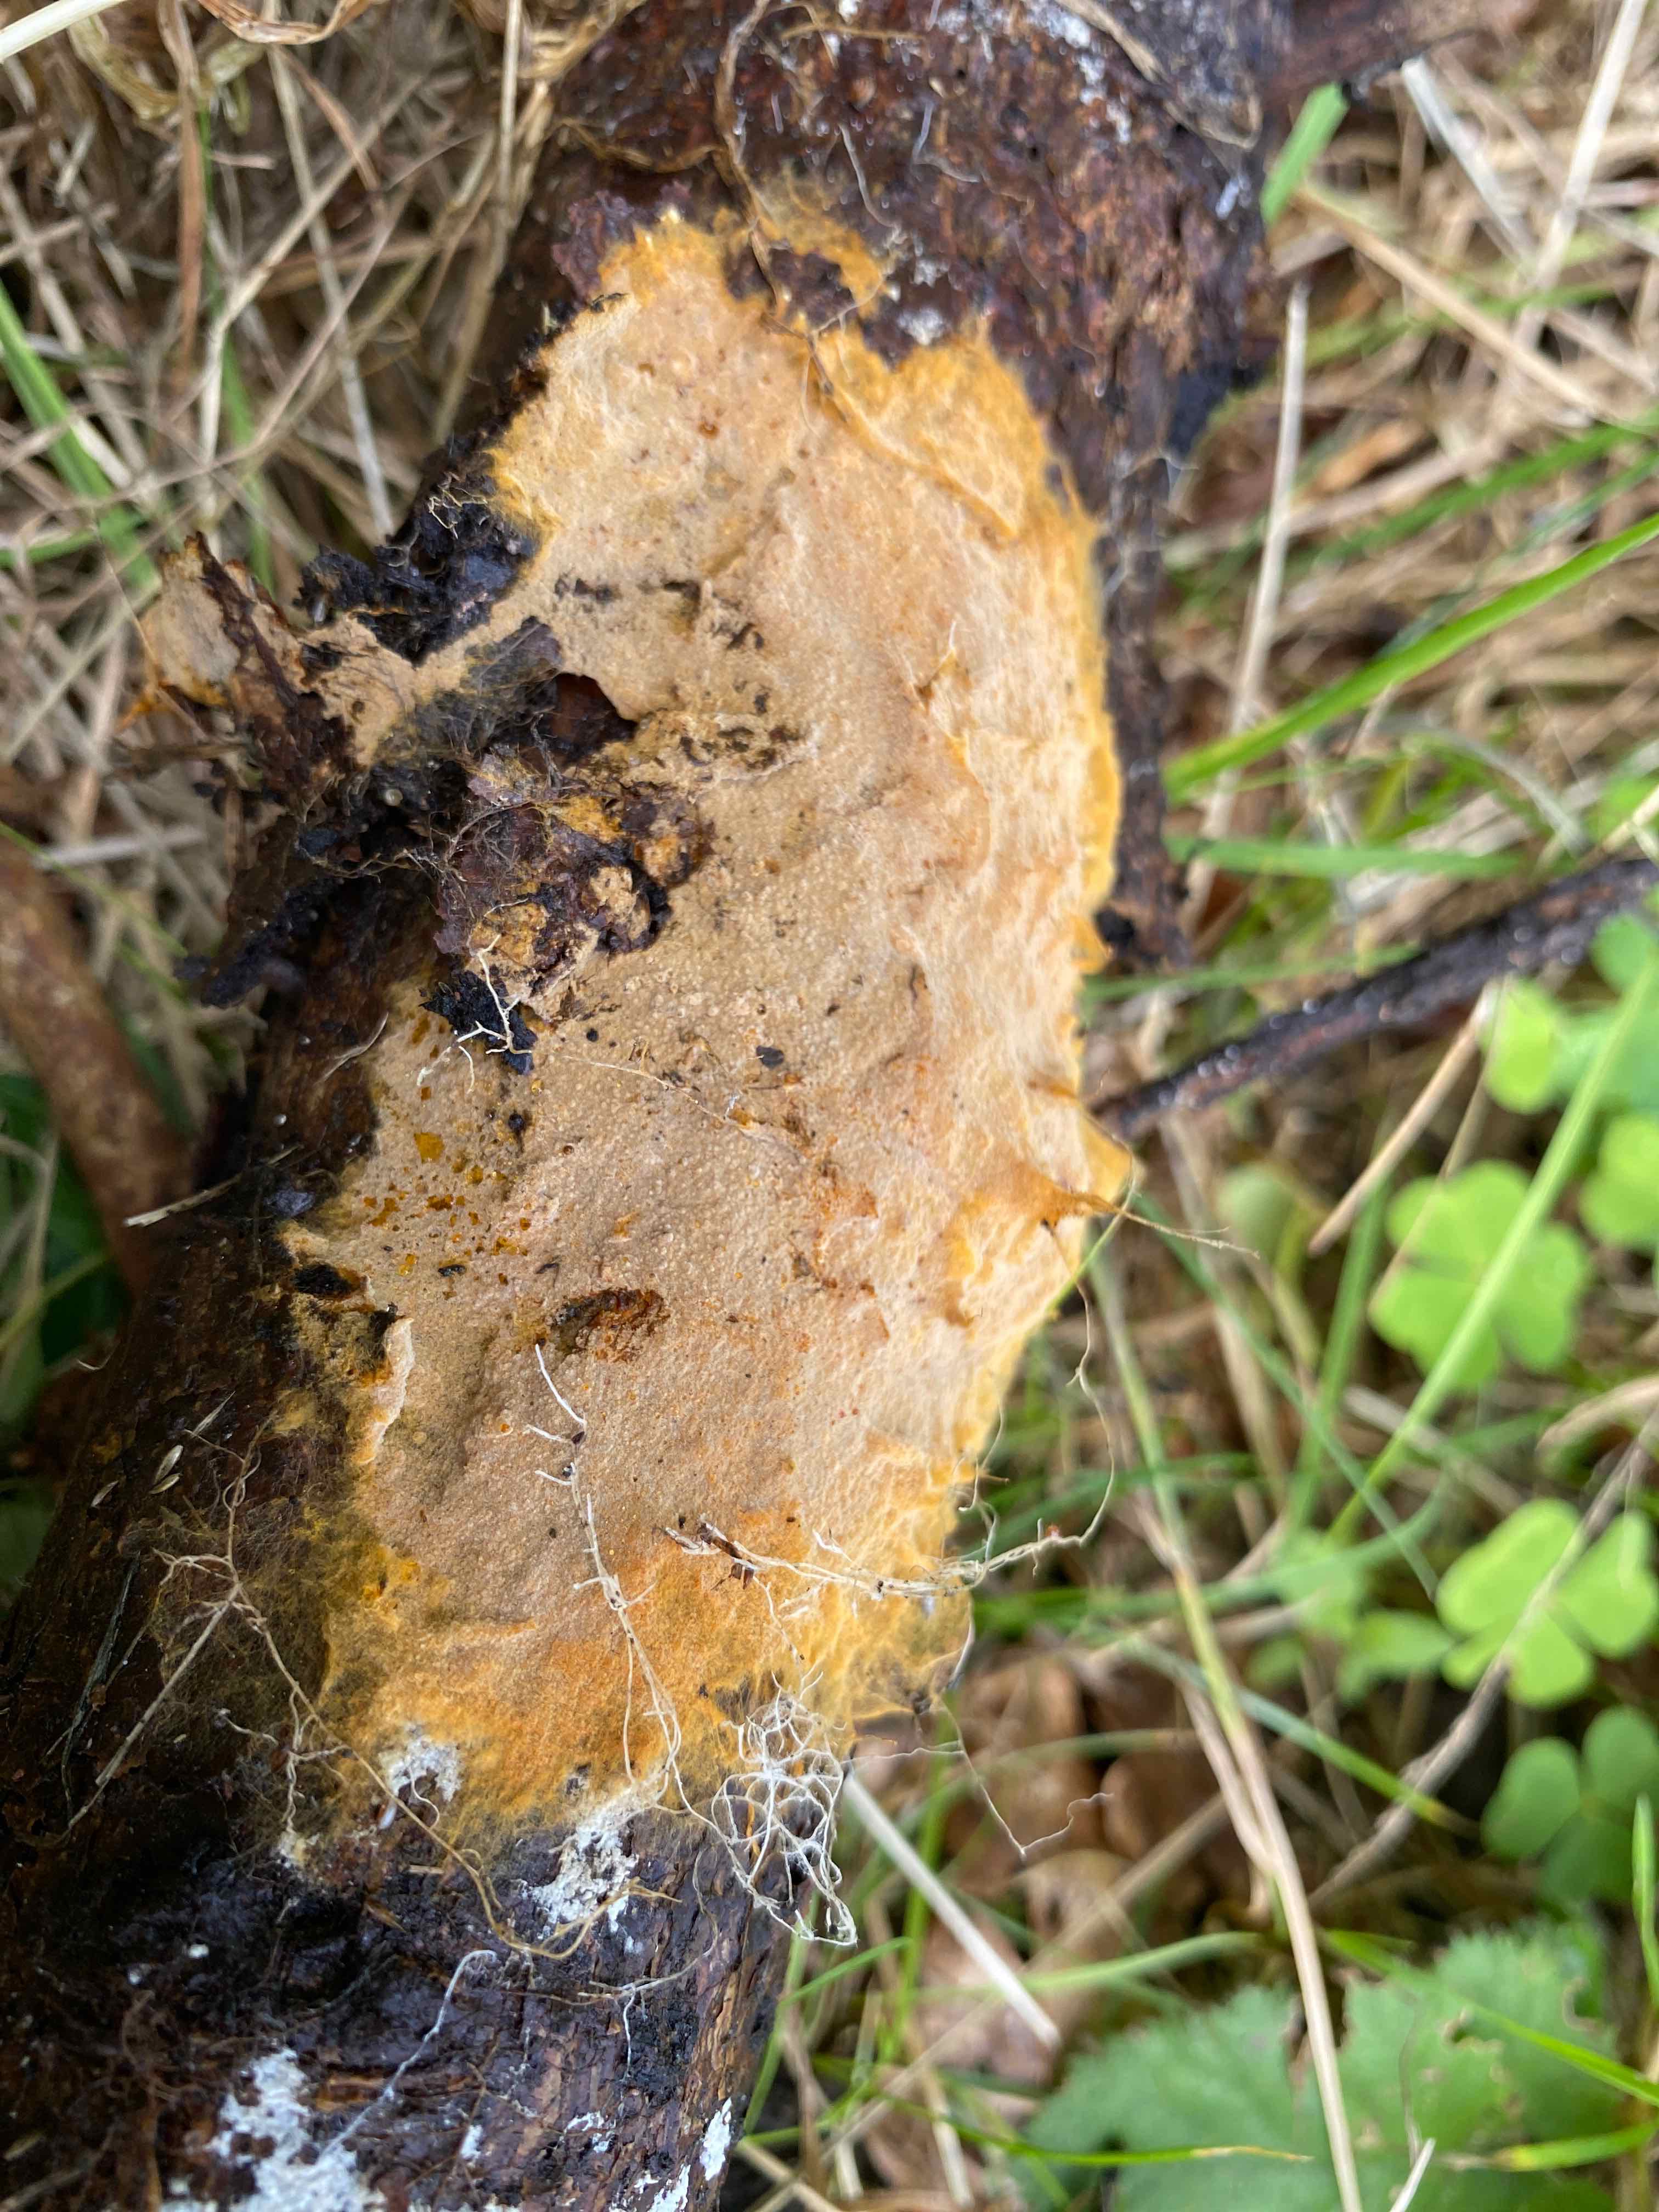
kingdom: Fungi
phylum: Basidiomycota
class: Agaricomycetes
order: Thelephorales
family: Thelephoraceae
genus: Tomentella
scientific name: Tomentella
